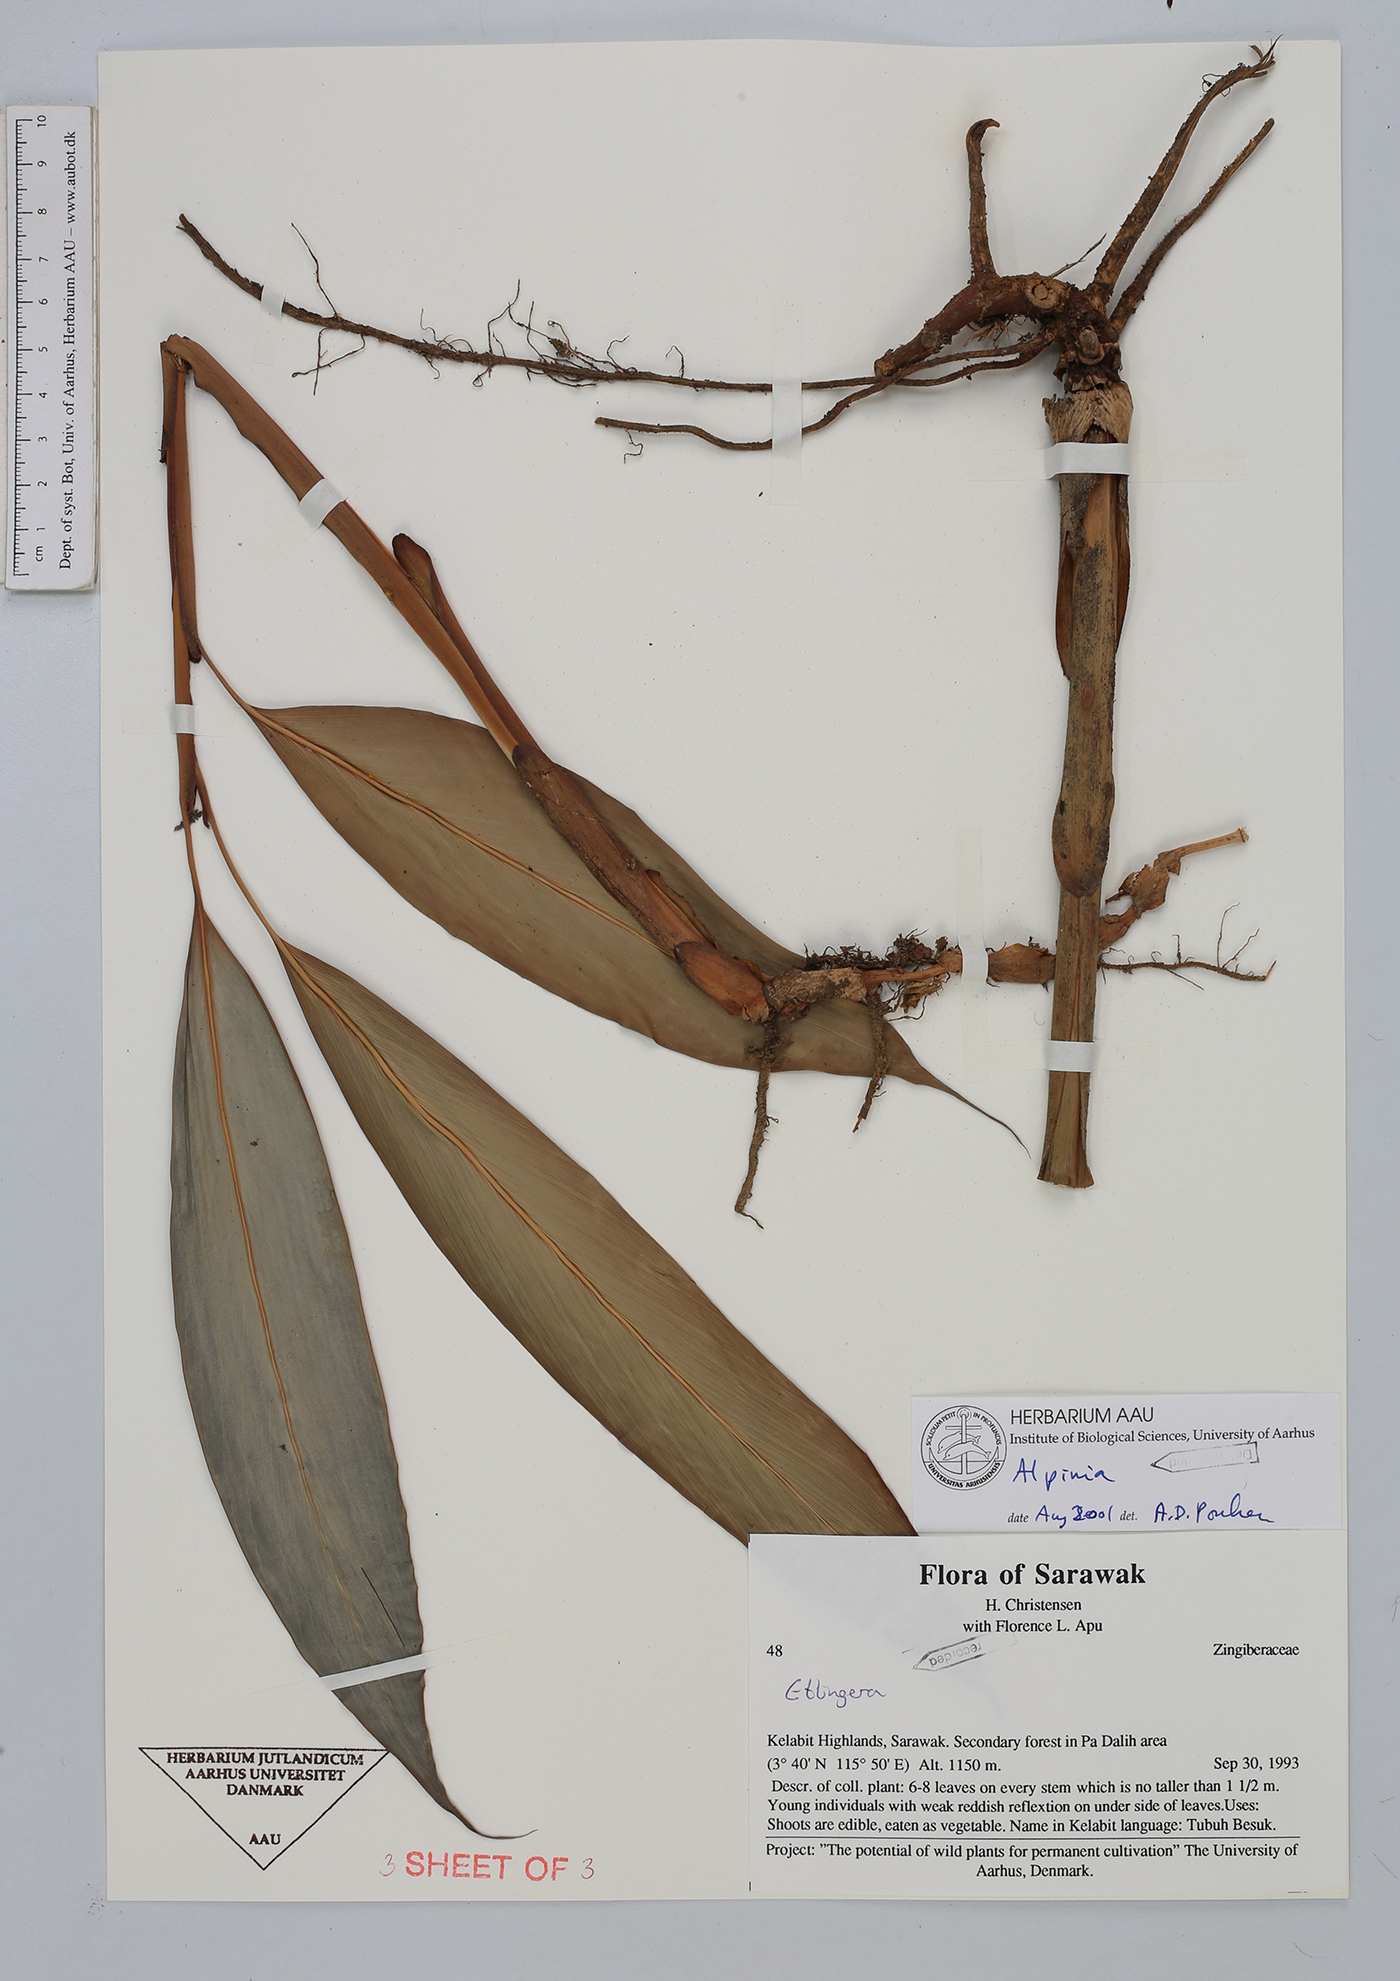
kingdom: Plantae
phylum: Tracheophyta
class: Liliopsida
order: Zingiberales
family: Zingiberaceae
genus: Alpinia
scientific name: Alpinia
